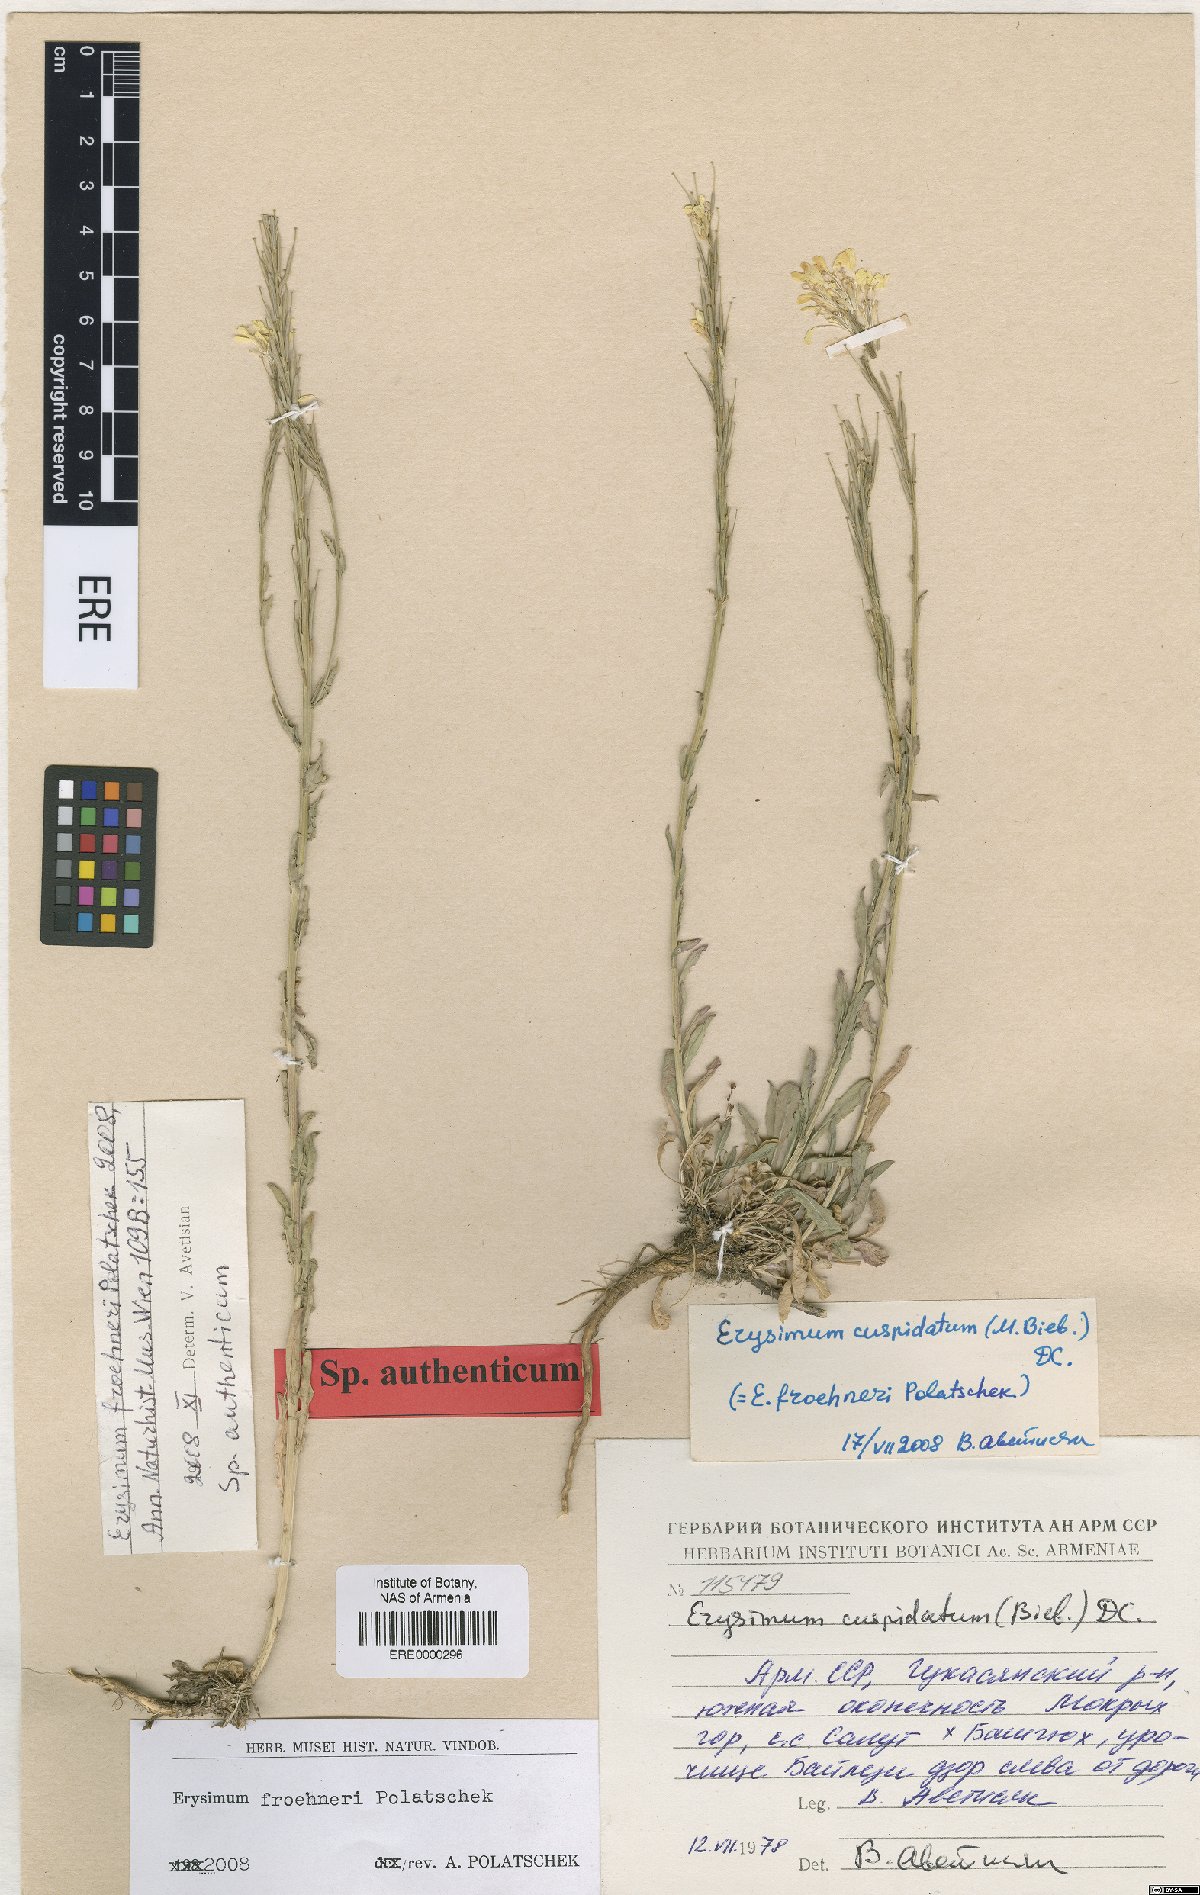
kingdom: Plantae
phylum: Tracheophyta
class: Magnoliopsida
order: Brassicales
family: Brassicaceae
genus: Erysimum
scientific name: Erysimum froehneri
